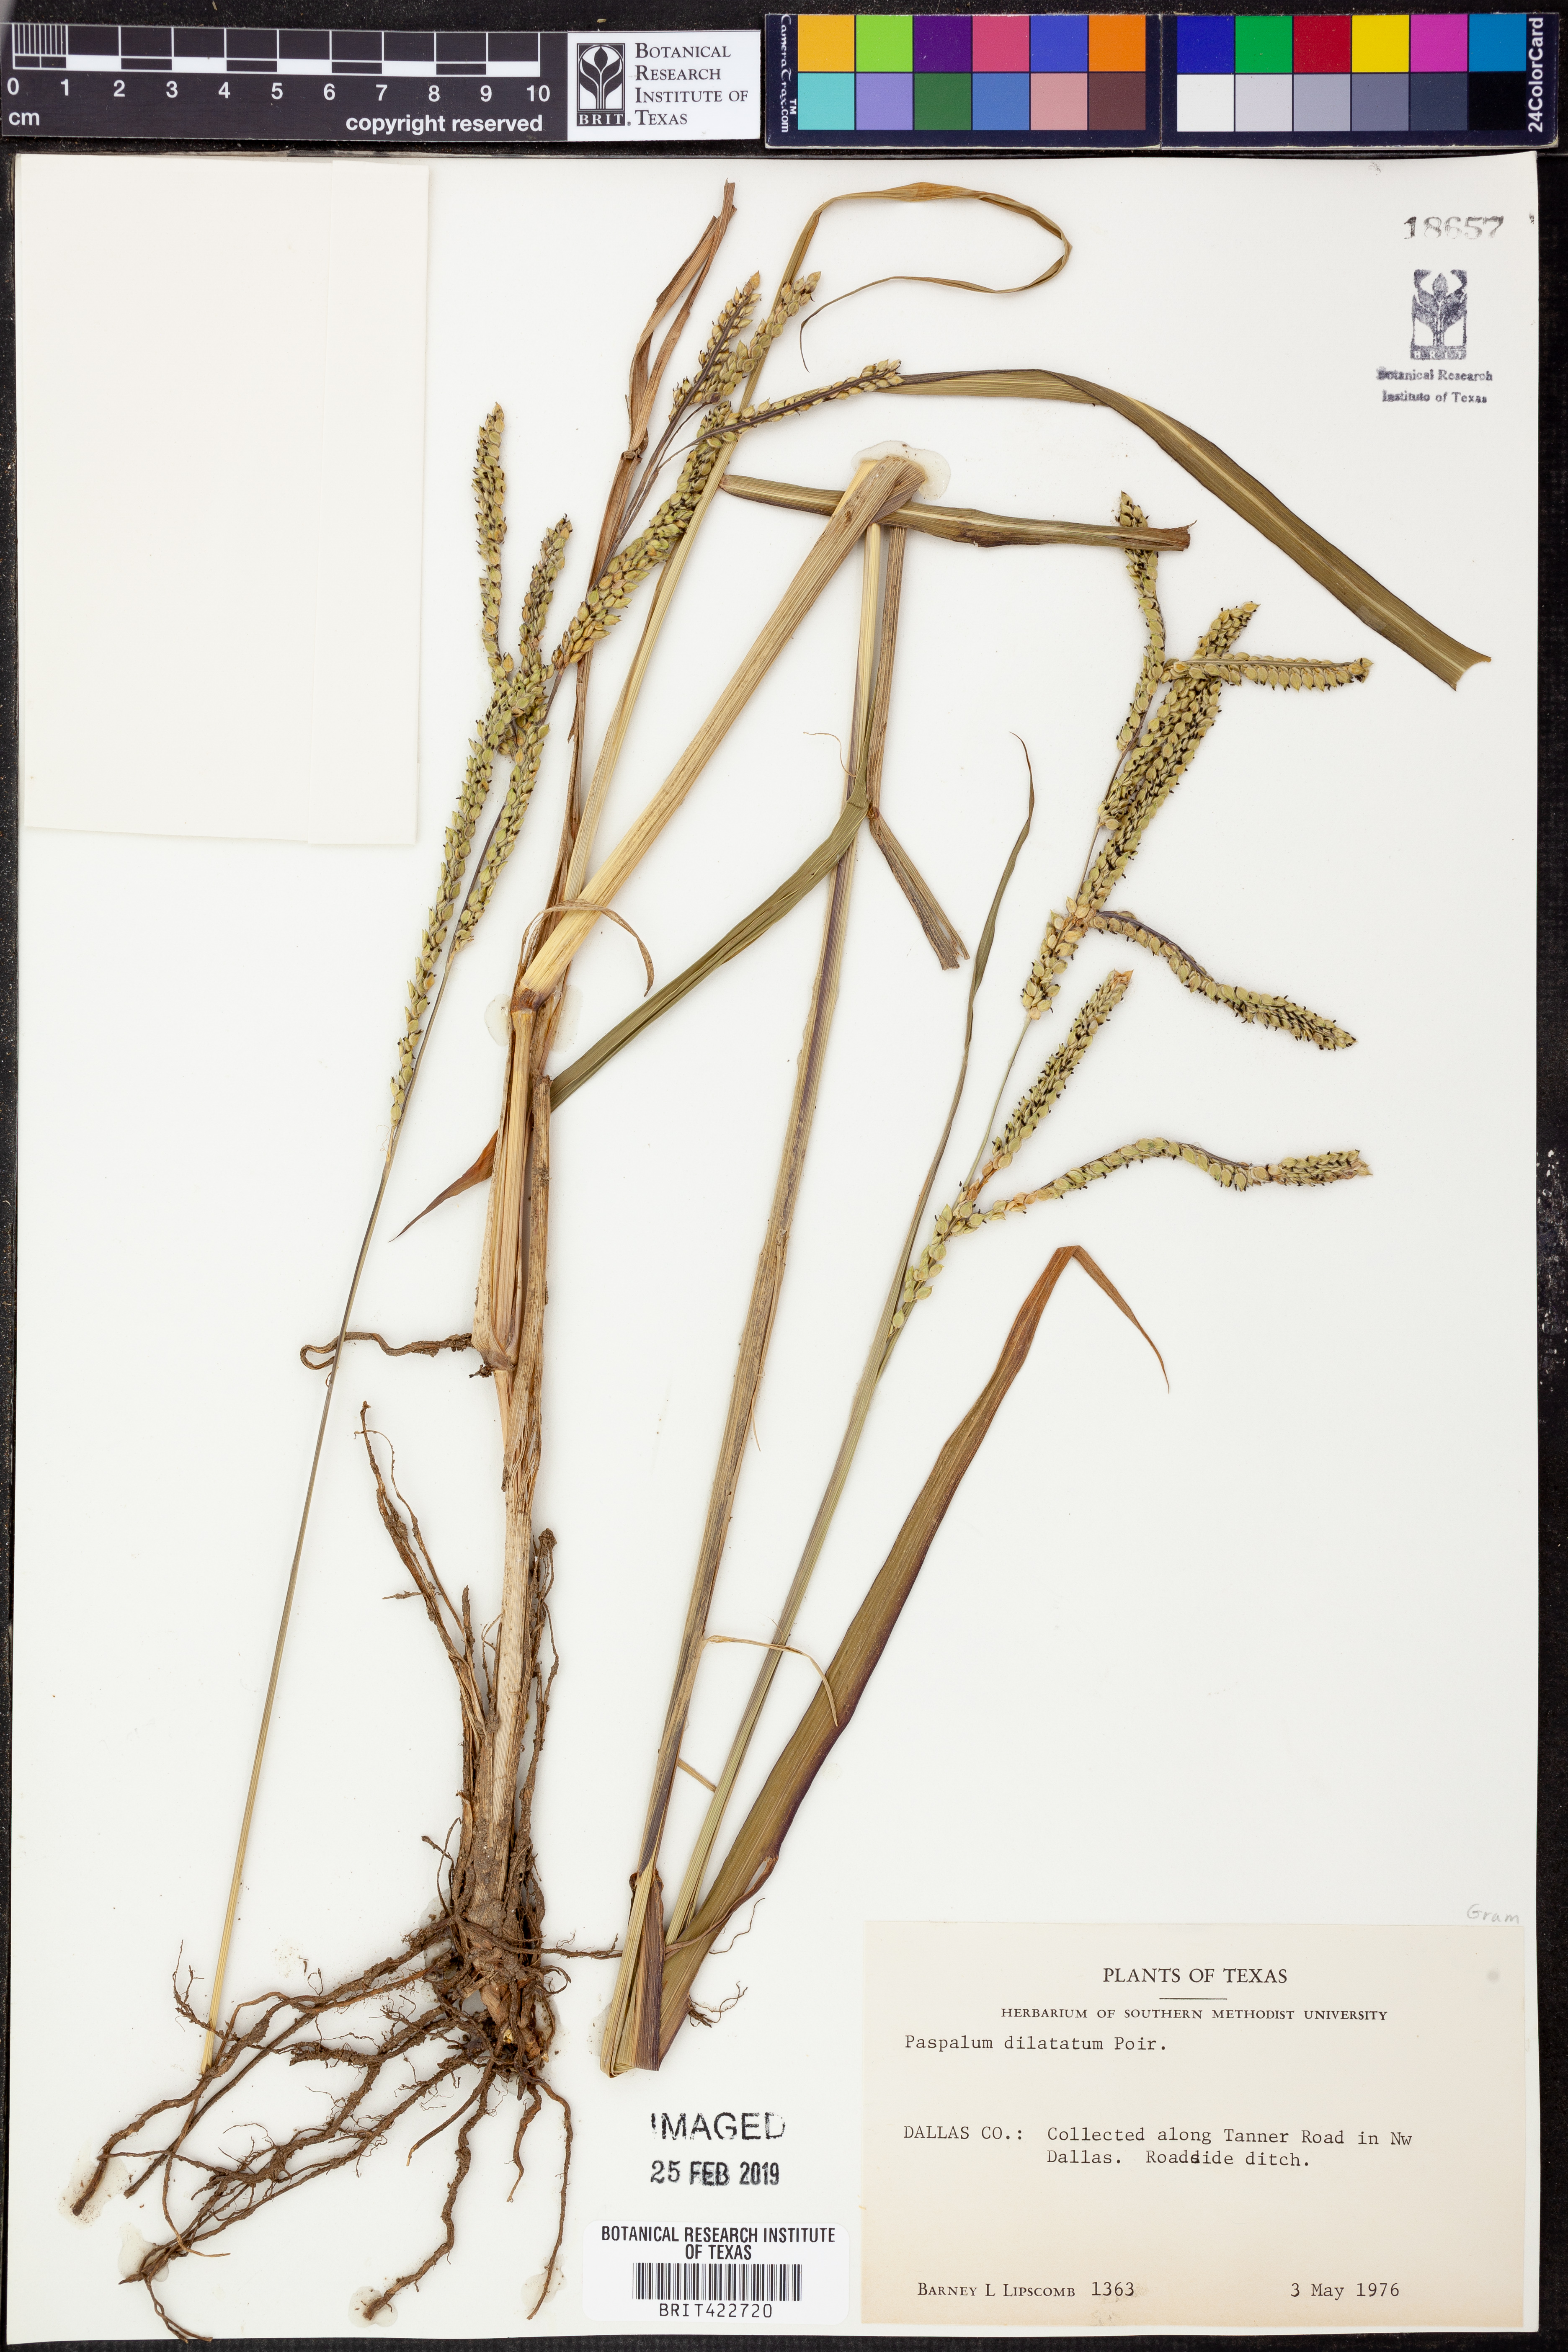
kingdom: Plantae
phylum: Tracheophyta
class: Liliopsida
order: Poales
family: Poaceae
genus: Paspalum
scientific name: Paspalum dilatatum
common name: Dallisgrass
